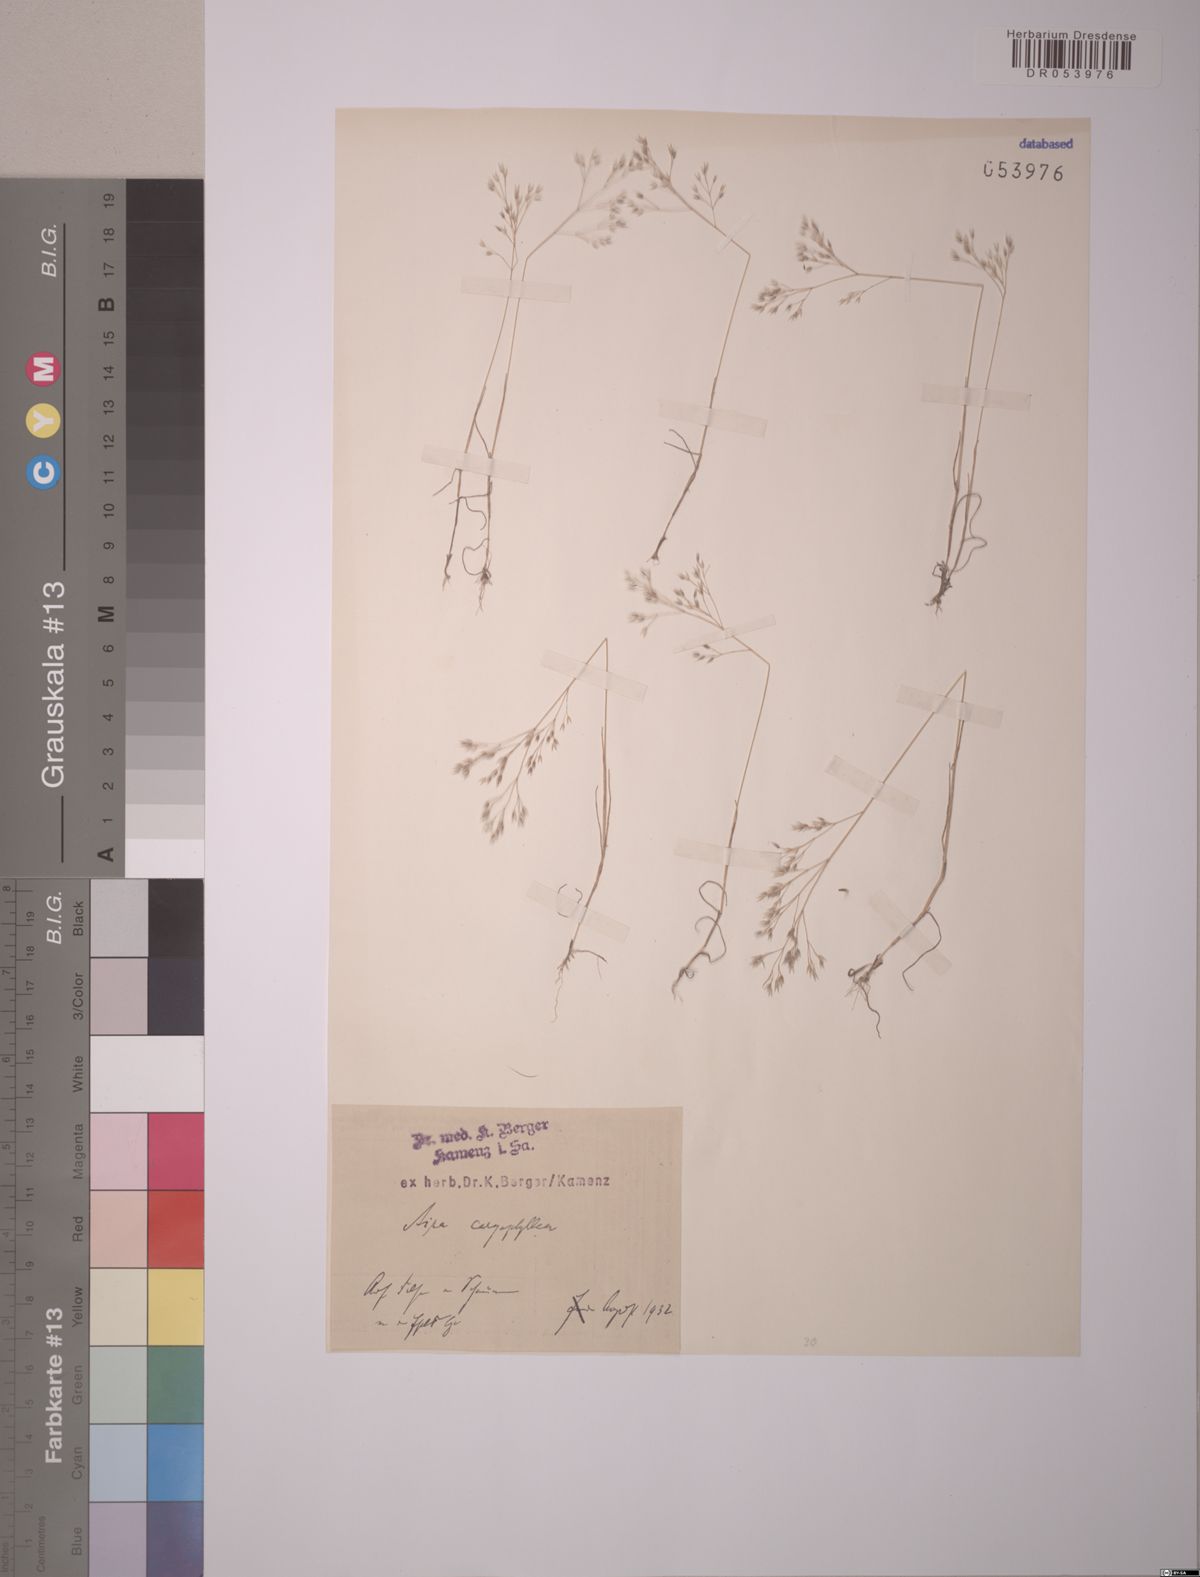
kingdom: Plantae
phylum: Tracheophyta
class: Liliopsida
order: Poales
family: Poaceae
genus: Aira
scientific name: Aira caryophyllea
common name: Silver hairgrass
